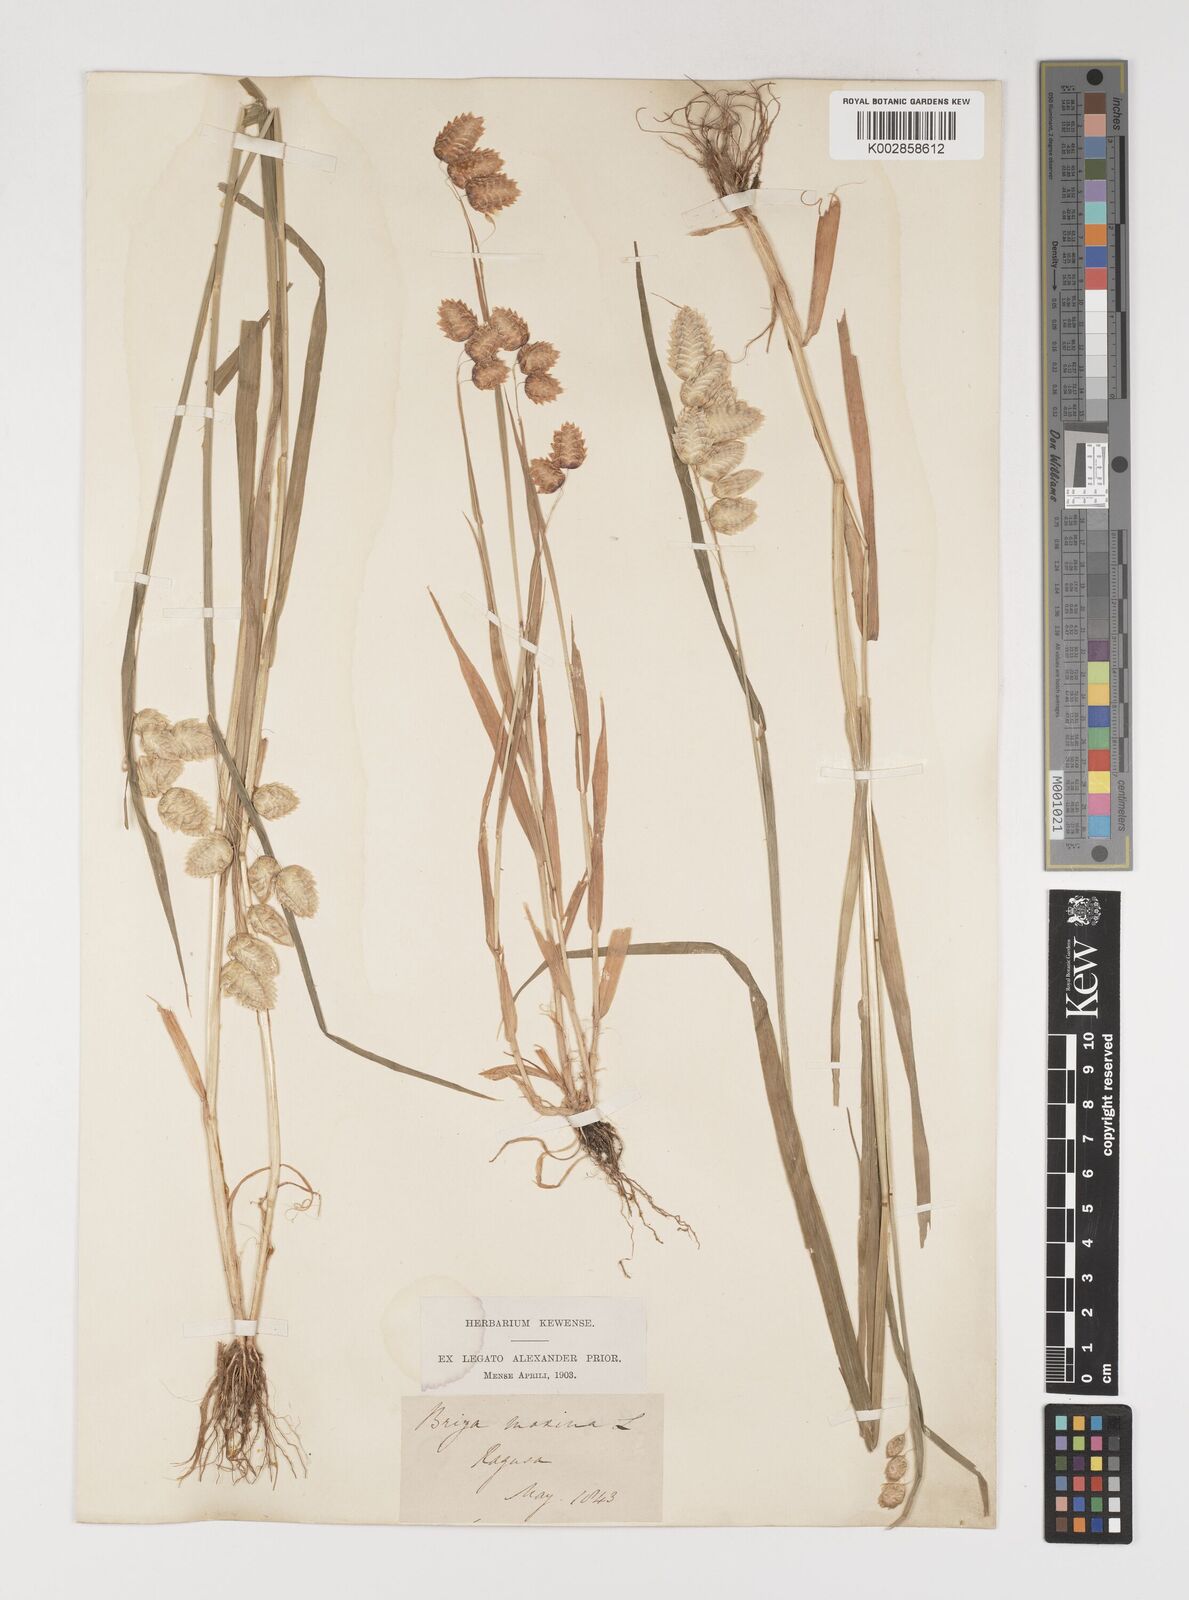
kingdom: Plantae
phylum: Tracheophyta
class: Liliopsida
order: Poales
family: Poaceae
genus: Briza
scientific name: Briza maxima
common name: Big quakinggrass
